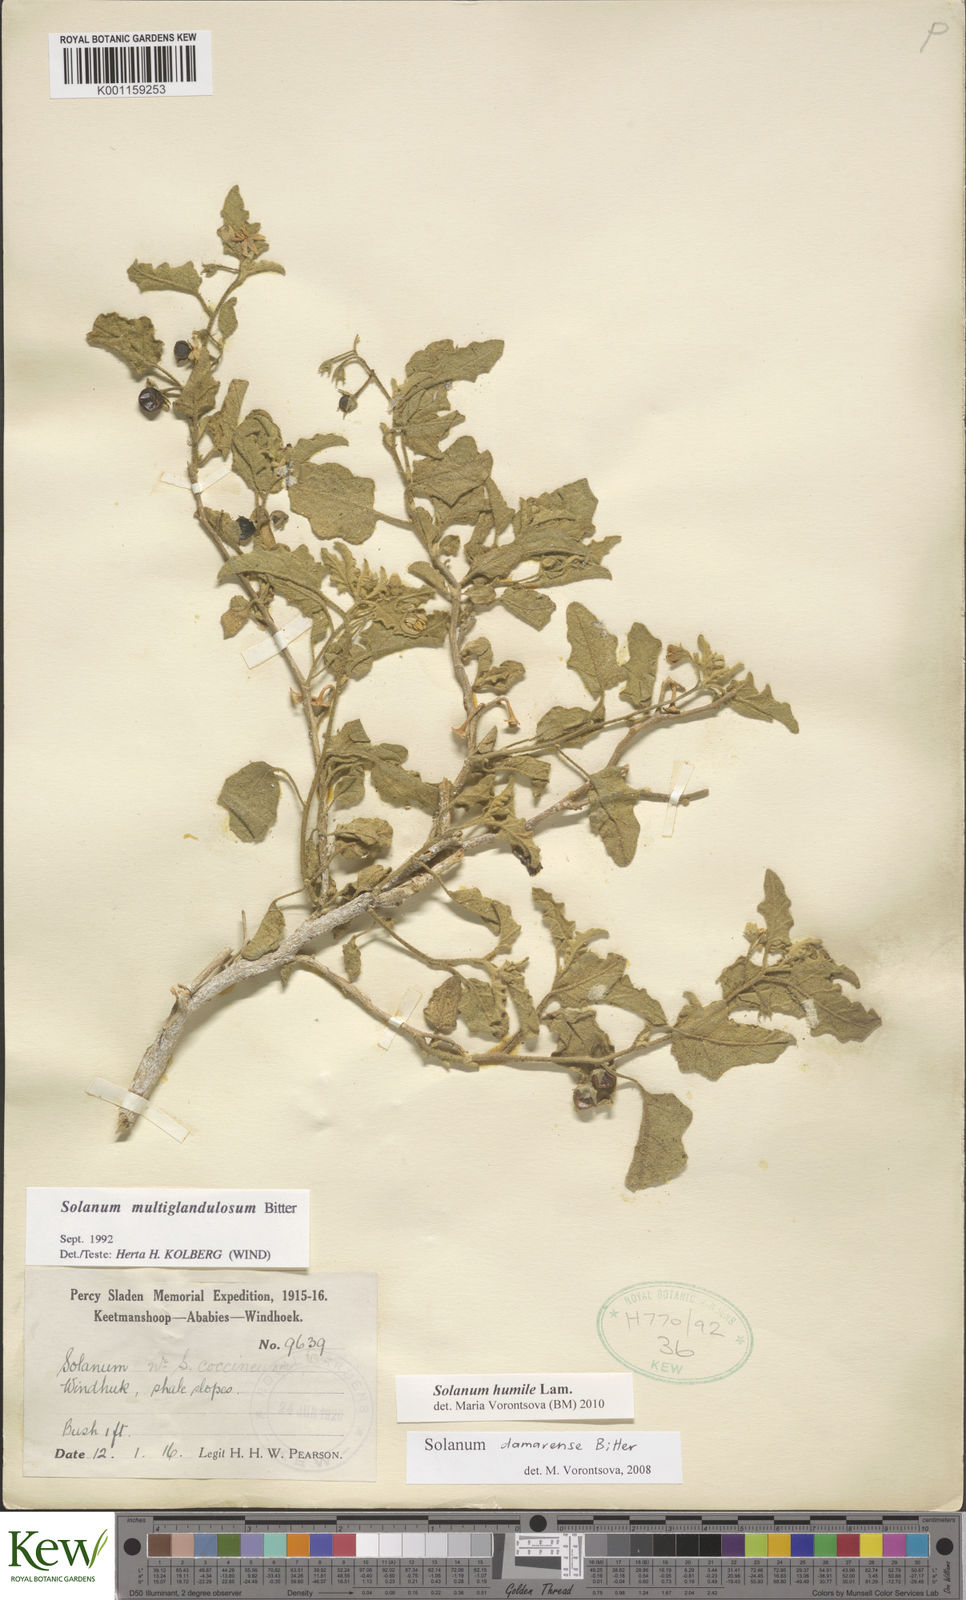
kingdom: Plantae
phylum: Tracheophyta
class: Magnoliopsida
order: Solanales
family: Solanaceae
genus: Solanum
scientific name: Solanum humile
